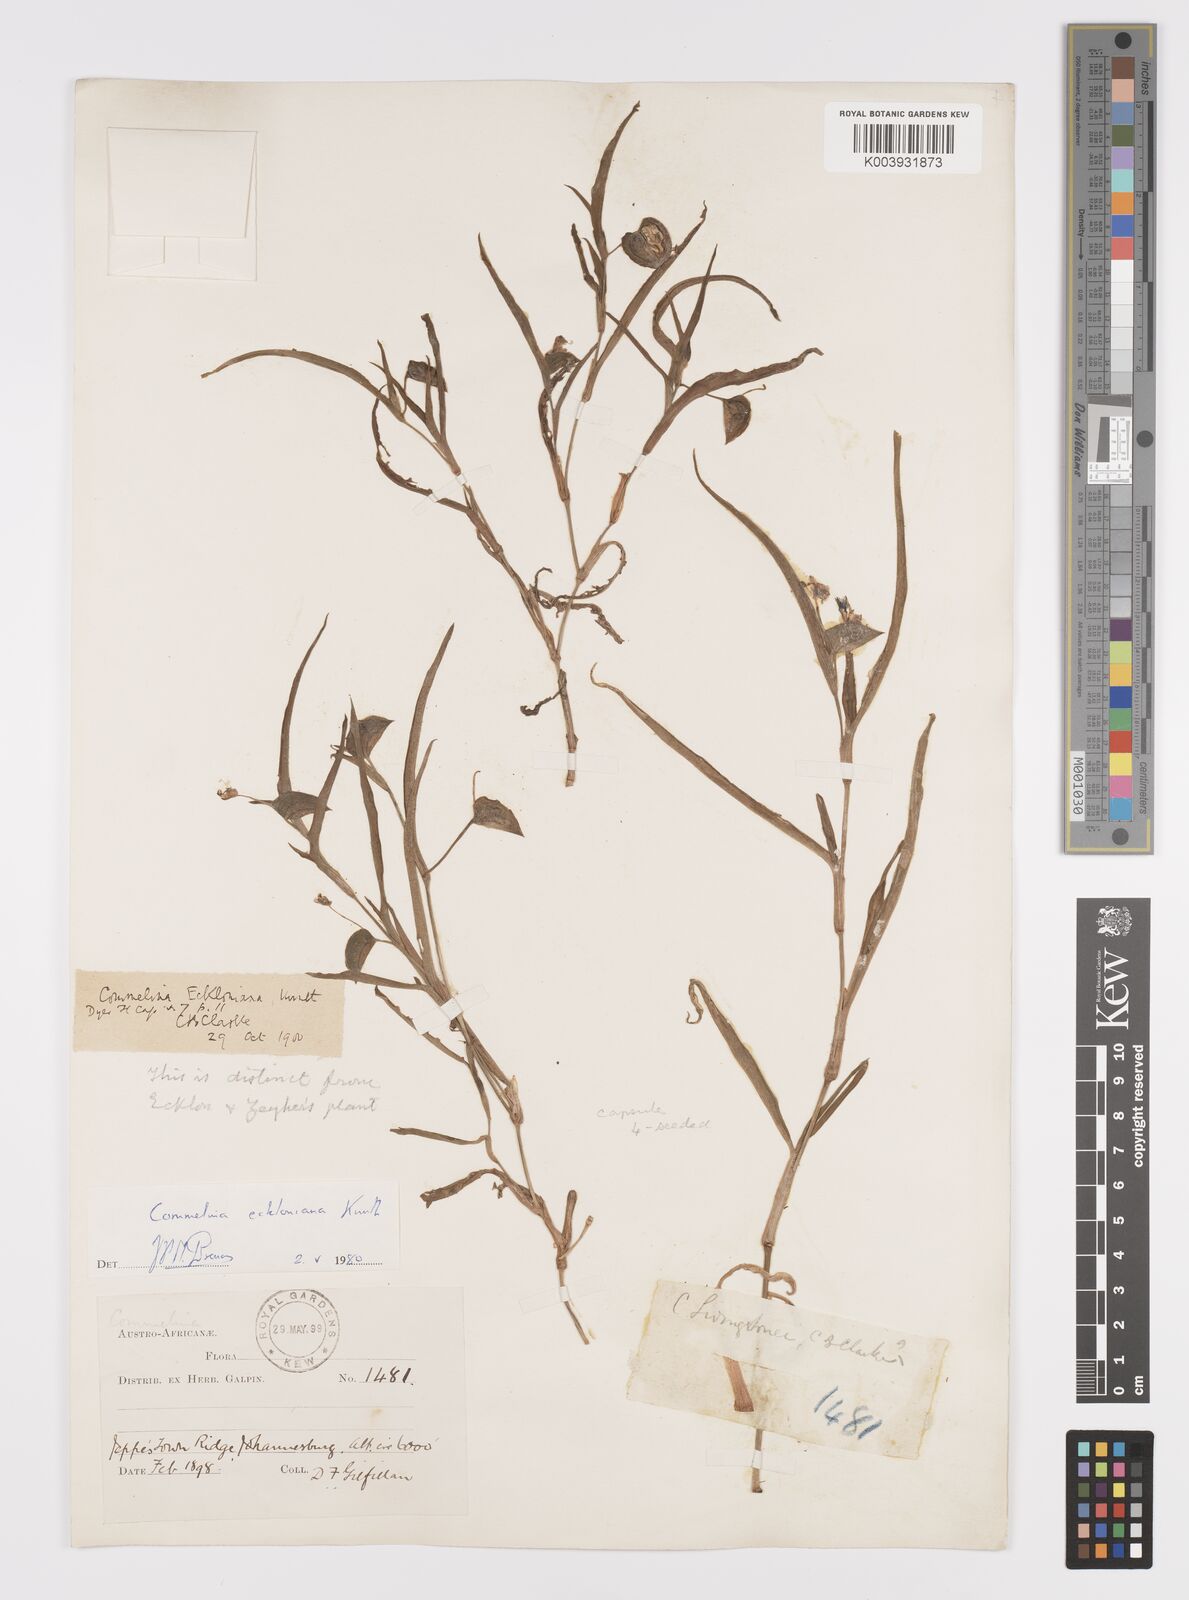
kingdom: Plantae
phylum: Tracheophyta
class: Liliopsida
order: Commelinales
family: Commelinaceae
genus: Commelina
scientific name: Commelina eckloniana
